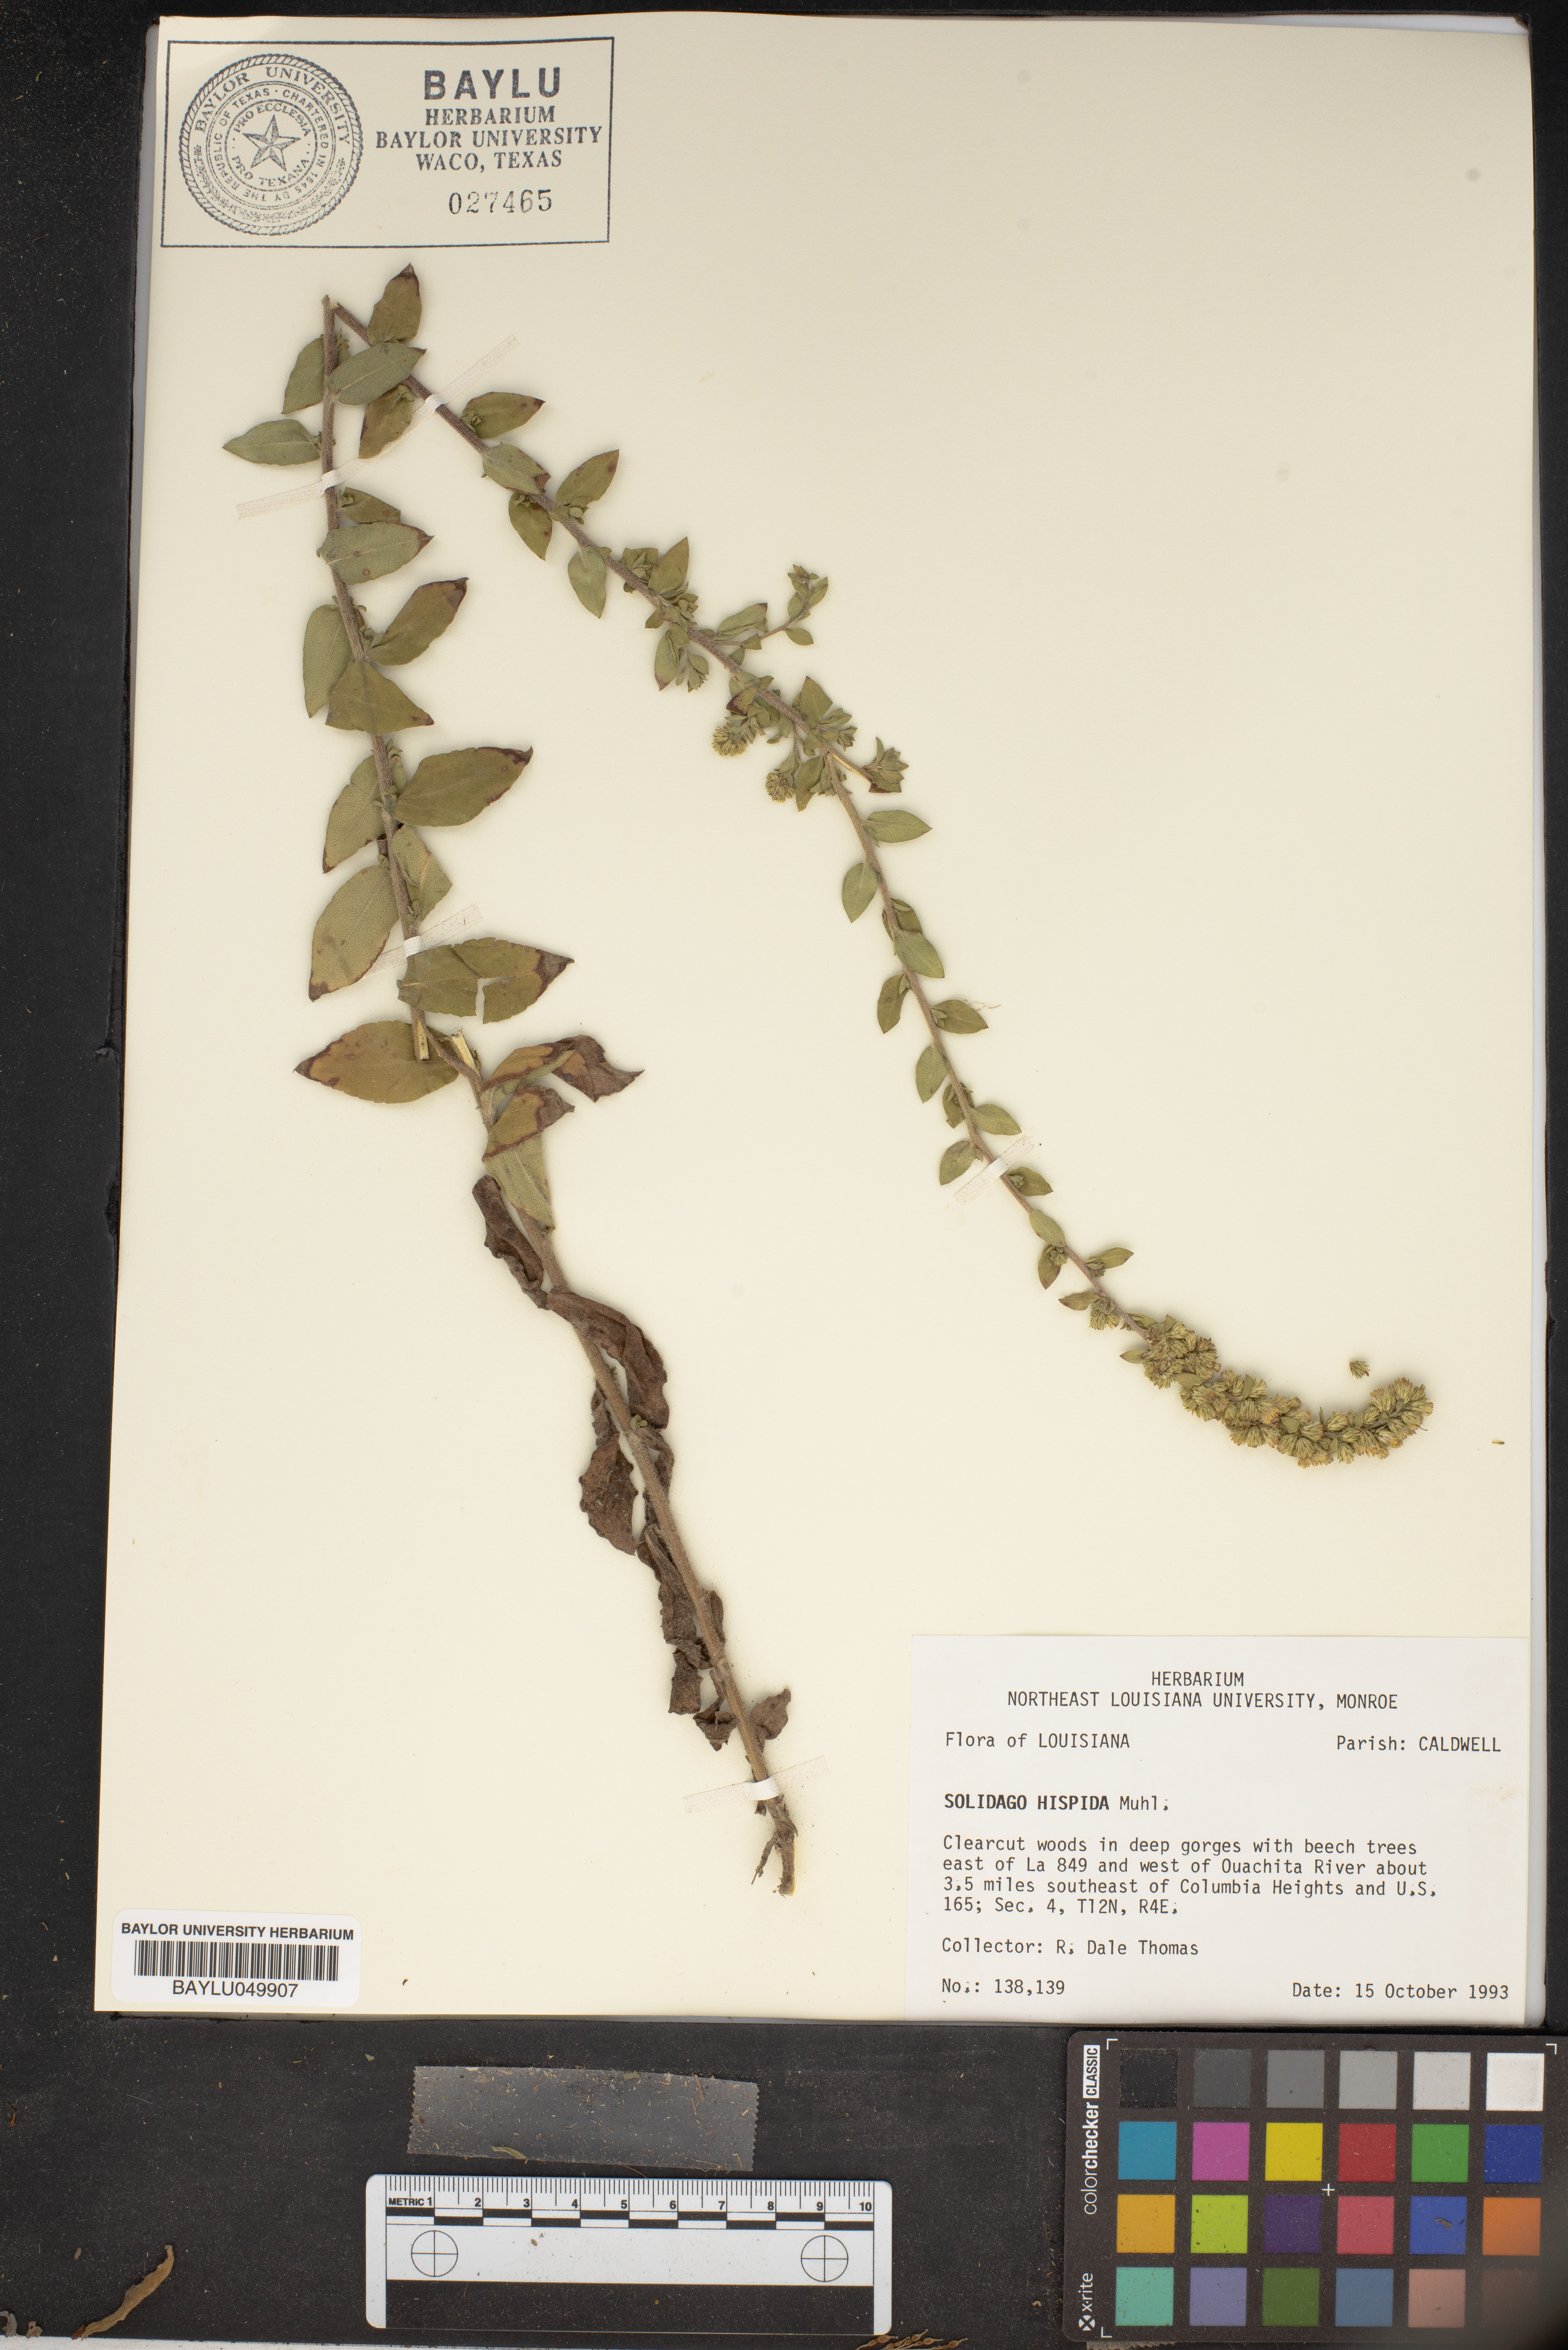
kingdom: Plantae
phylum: Tracheophyta
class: Magnoliopsida
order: Asterales
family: Asteraceae
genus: Solidago
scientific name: Solidago hispida
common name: Hairy goldenrod
